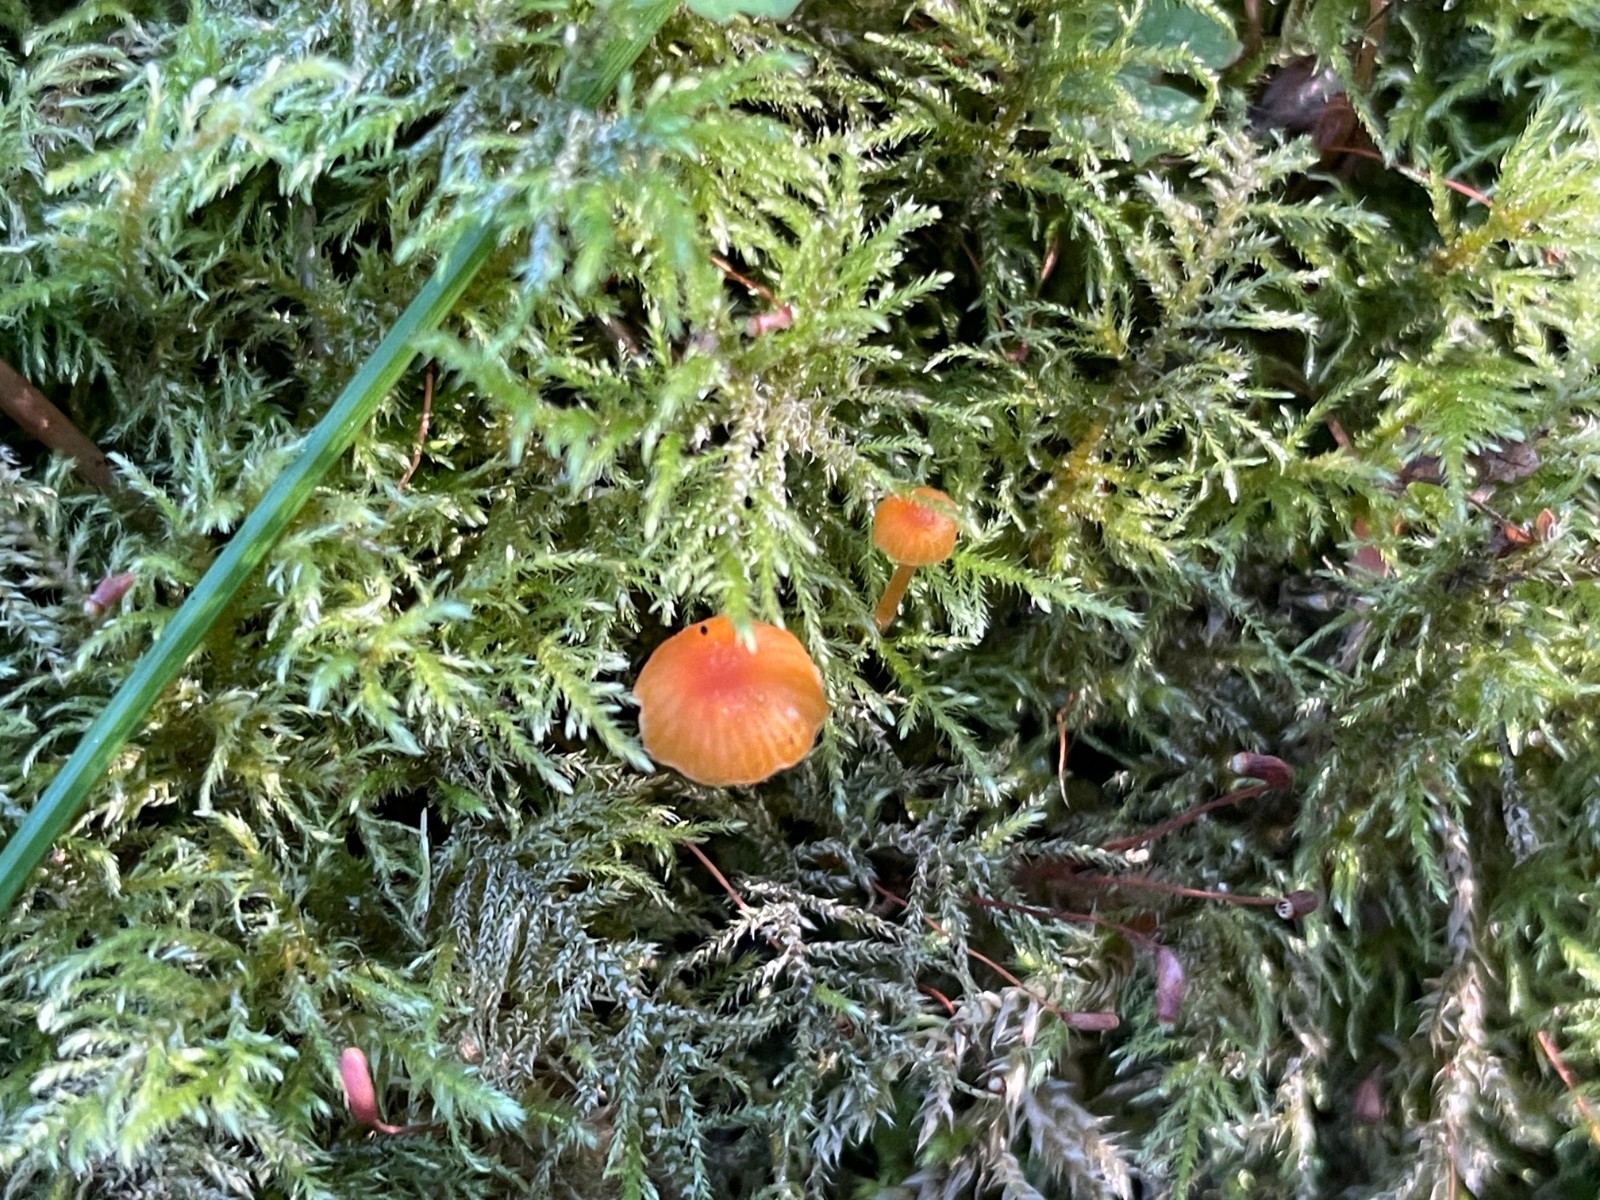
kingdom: Fungi
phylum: Basidiomycota
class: Agaricomycetes
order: Hymenochaetales
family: Rickenellaceae
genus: Rickenella
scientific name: Rickenella fibula
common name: orange mosnavlehat
